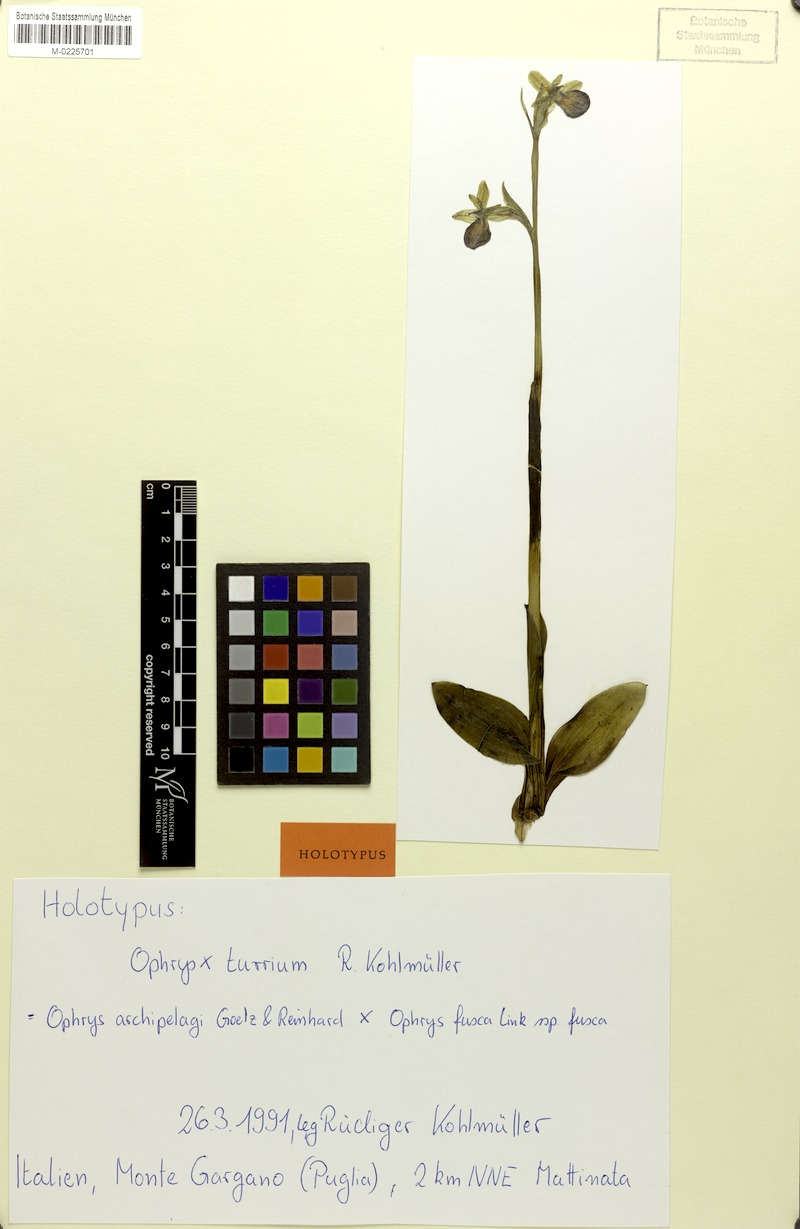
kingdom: Plantae
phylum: Tracheophyta
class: Liliopsida
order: Asparagales
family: Orchidaceae
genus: Ophrys
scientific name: Ophrys carquierannensis
